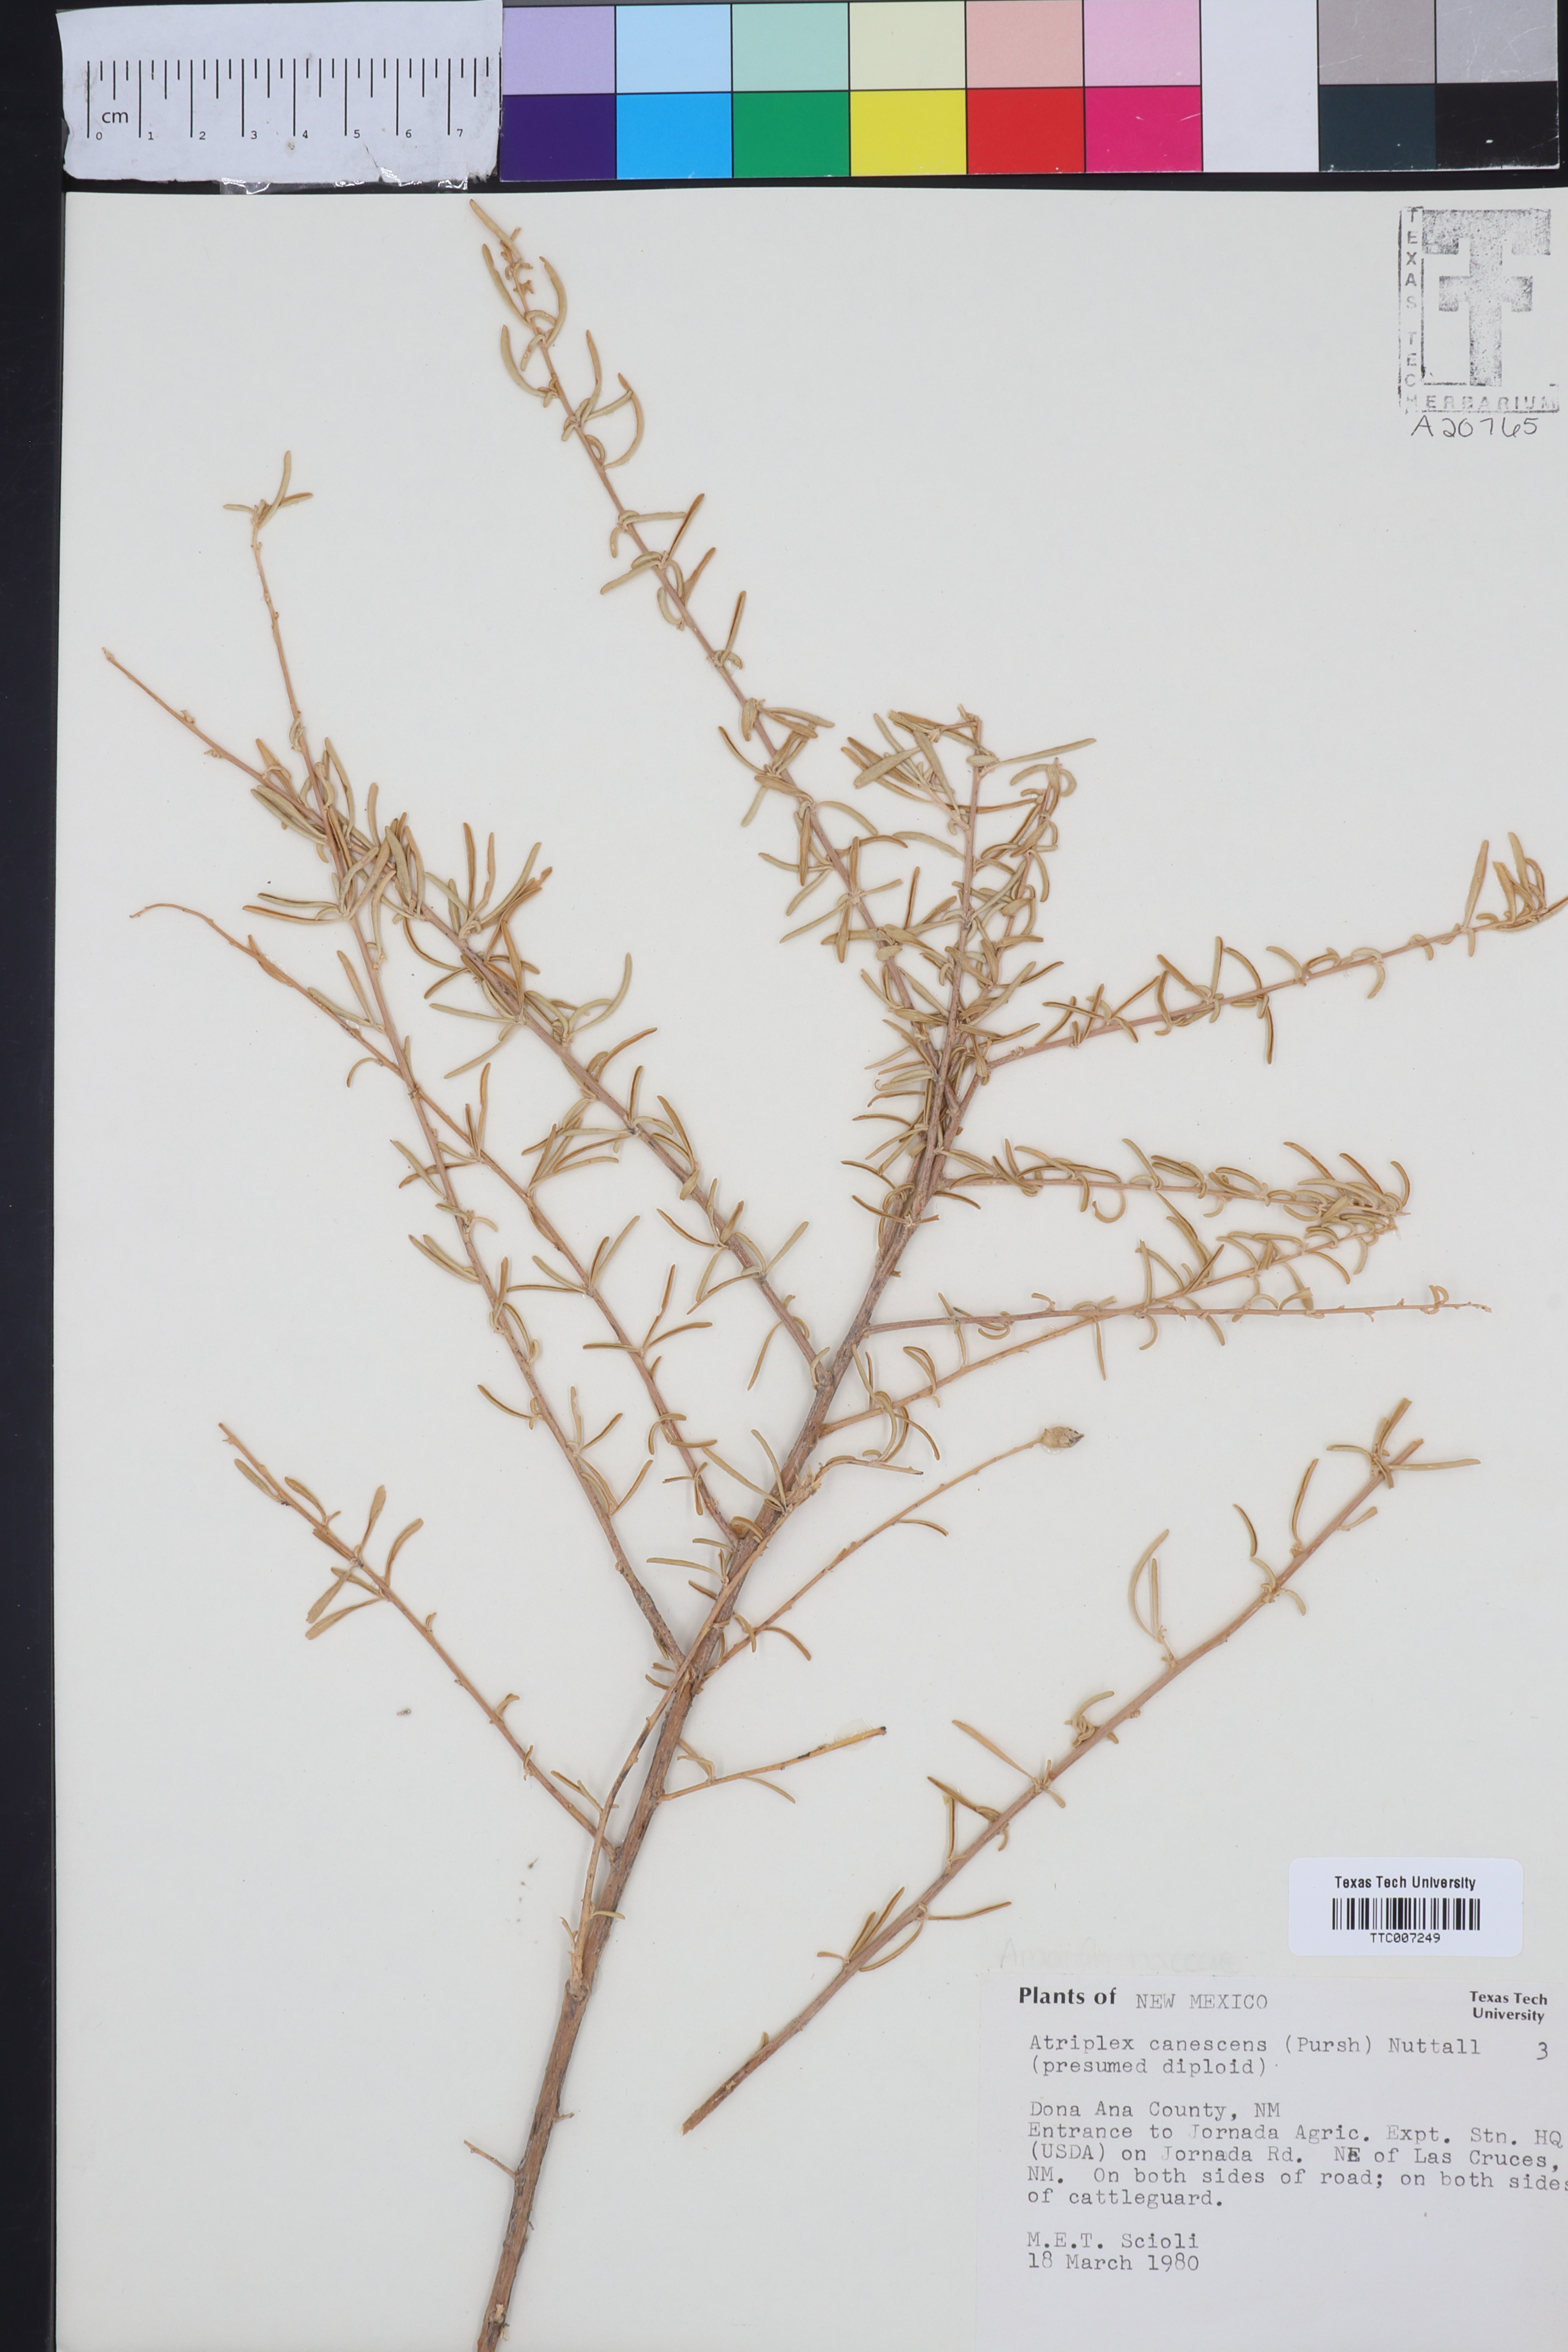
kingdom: Plantae
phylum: Tracheophyta
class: Magnoliopsida
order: Caryophyllales
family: Amaranthaceae
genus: Atriplex
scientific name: Atriplex canescens
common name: Four-wing saltbush
